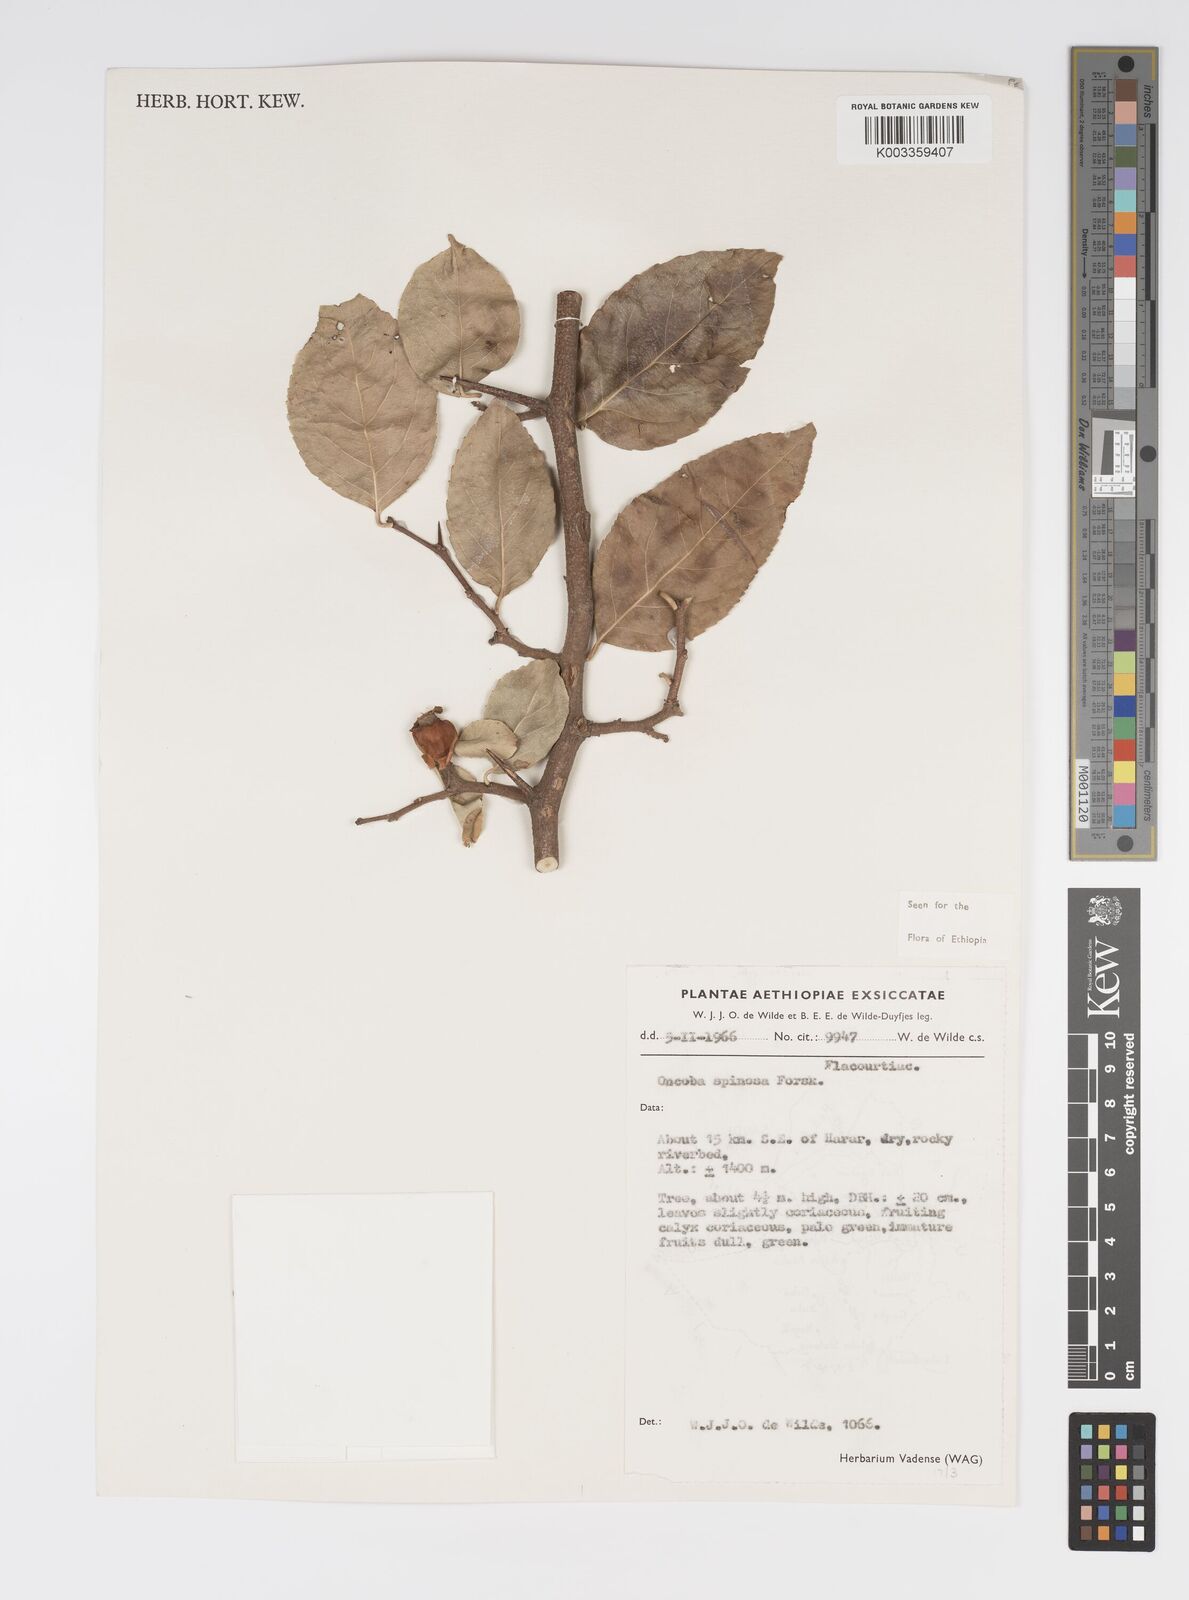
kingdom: Plantae
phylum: Tracheophyta
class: Magnoliopsida
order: Malpighiales
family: Salicaceae
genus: Oncoba
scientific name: Oncoba spinosa
